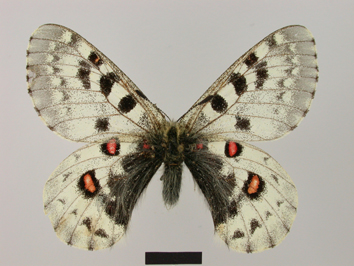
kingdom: Animalia
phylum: Arthropoda
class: Insecta
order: Lepidoptera
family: Papilionidae
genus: Parnassius
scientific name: Parnassius epaphus
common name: Common red apollo
